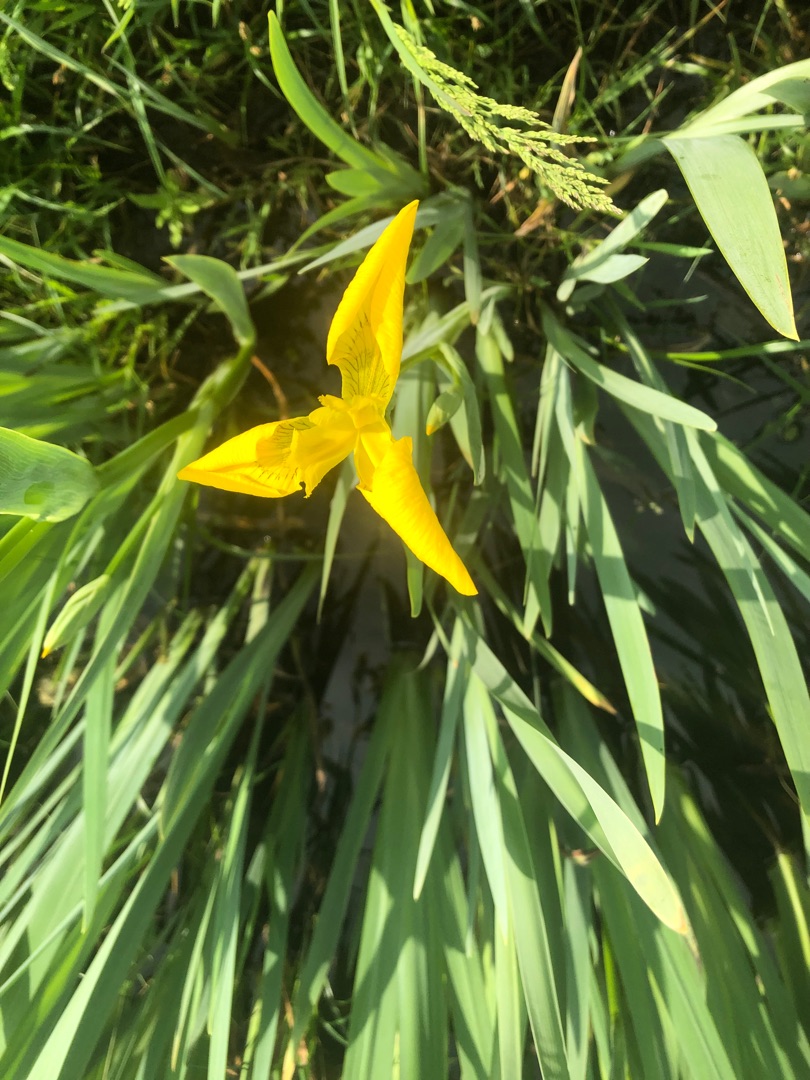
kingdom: Plantae
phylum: Tracheophyta
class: Liliopsida
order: Asparagales
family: Iridaceae
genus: Iris
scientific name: Iris pseudacorus
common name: Gul iris
